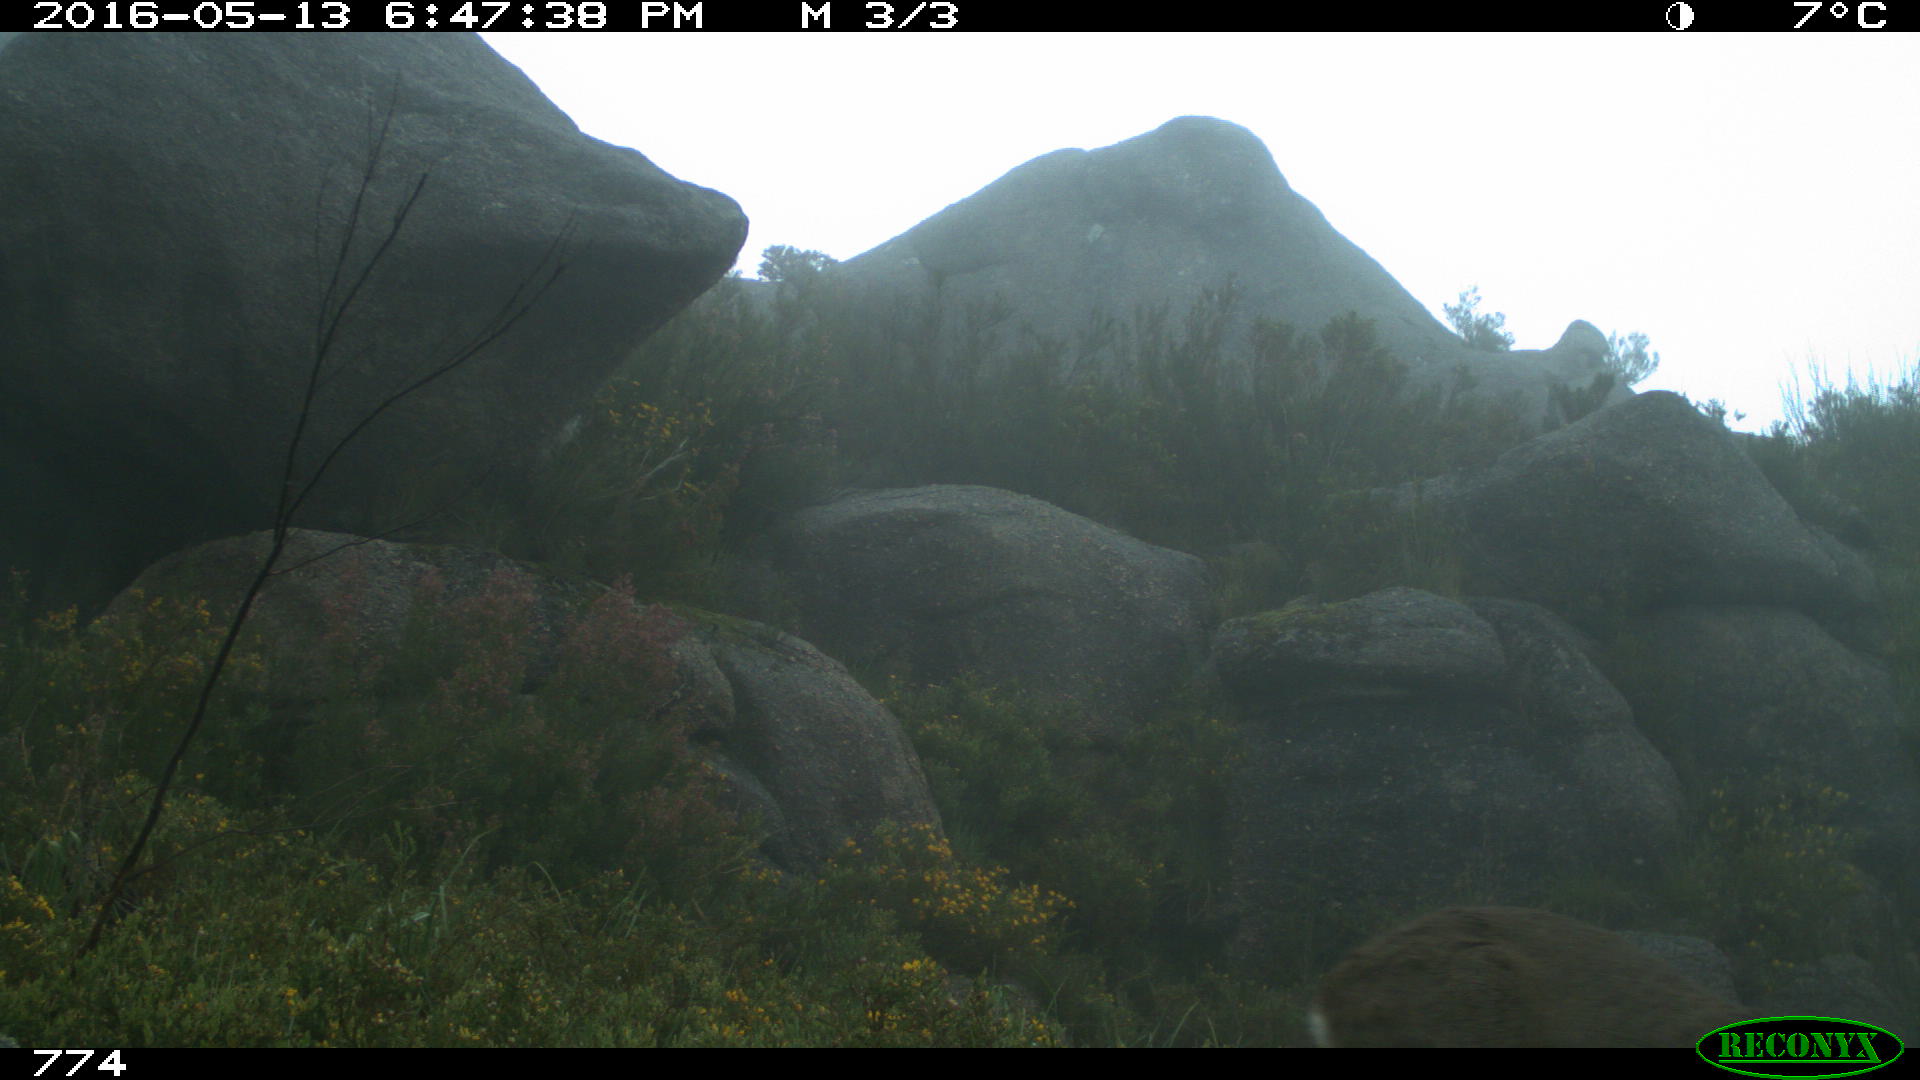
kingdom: Animalia
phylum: Chordata
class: Mammalia
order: Artiodactyla
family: Cervidae
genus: Capreolus
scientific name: Capreolus capreolus
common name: Western roe deer
